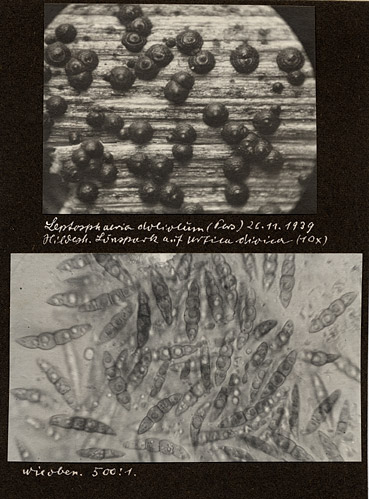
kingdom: Plantae
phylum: Tracheophyta
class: Magnoliopsida
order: Rosales
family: Urticaceae
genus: Urtica
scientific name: Urtica dioica
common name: Common nettle
